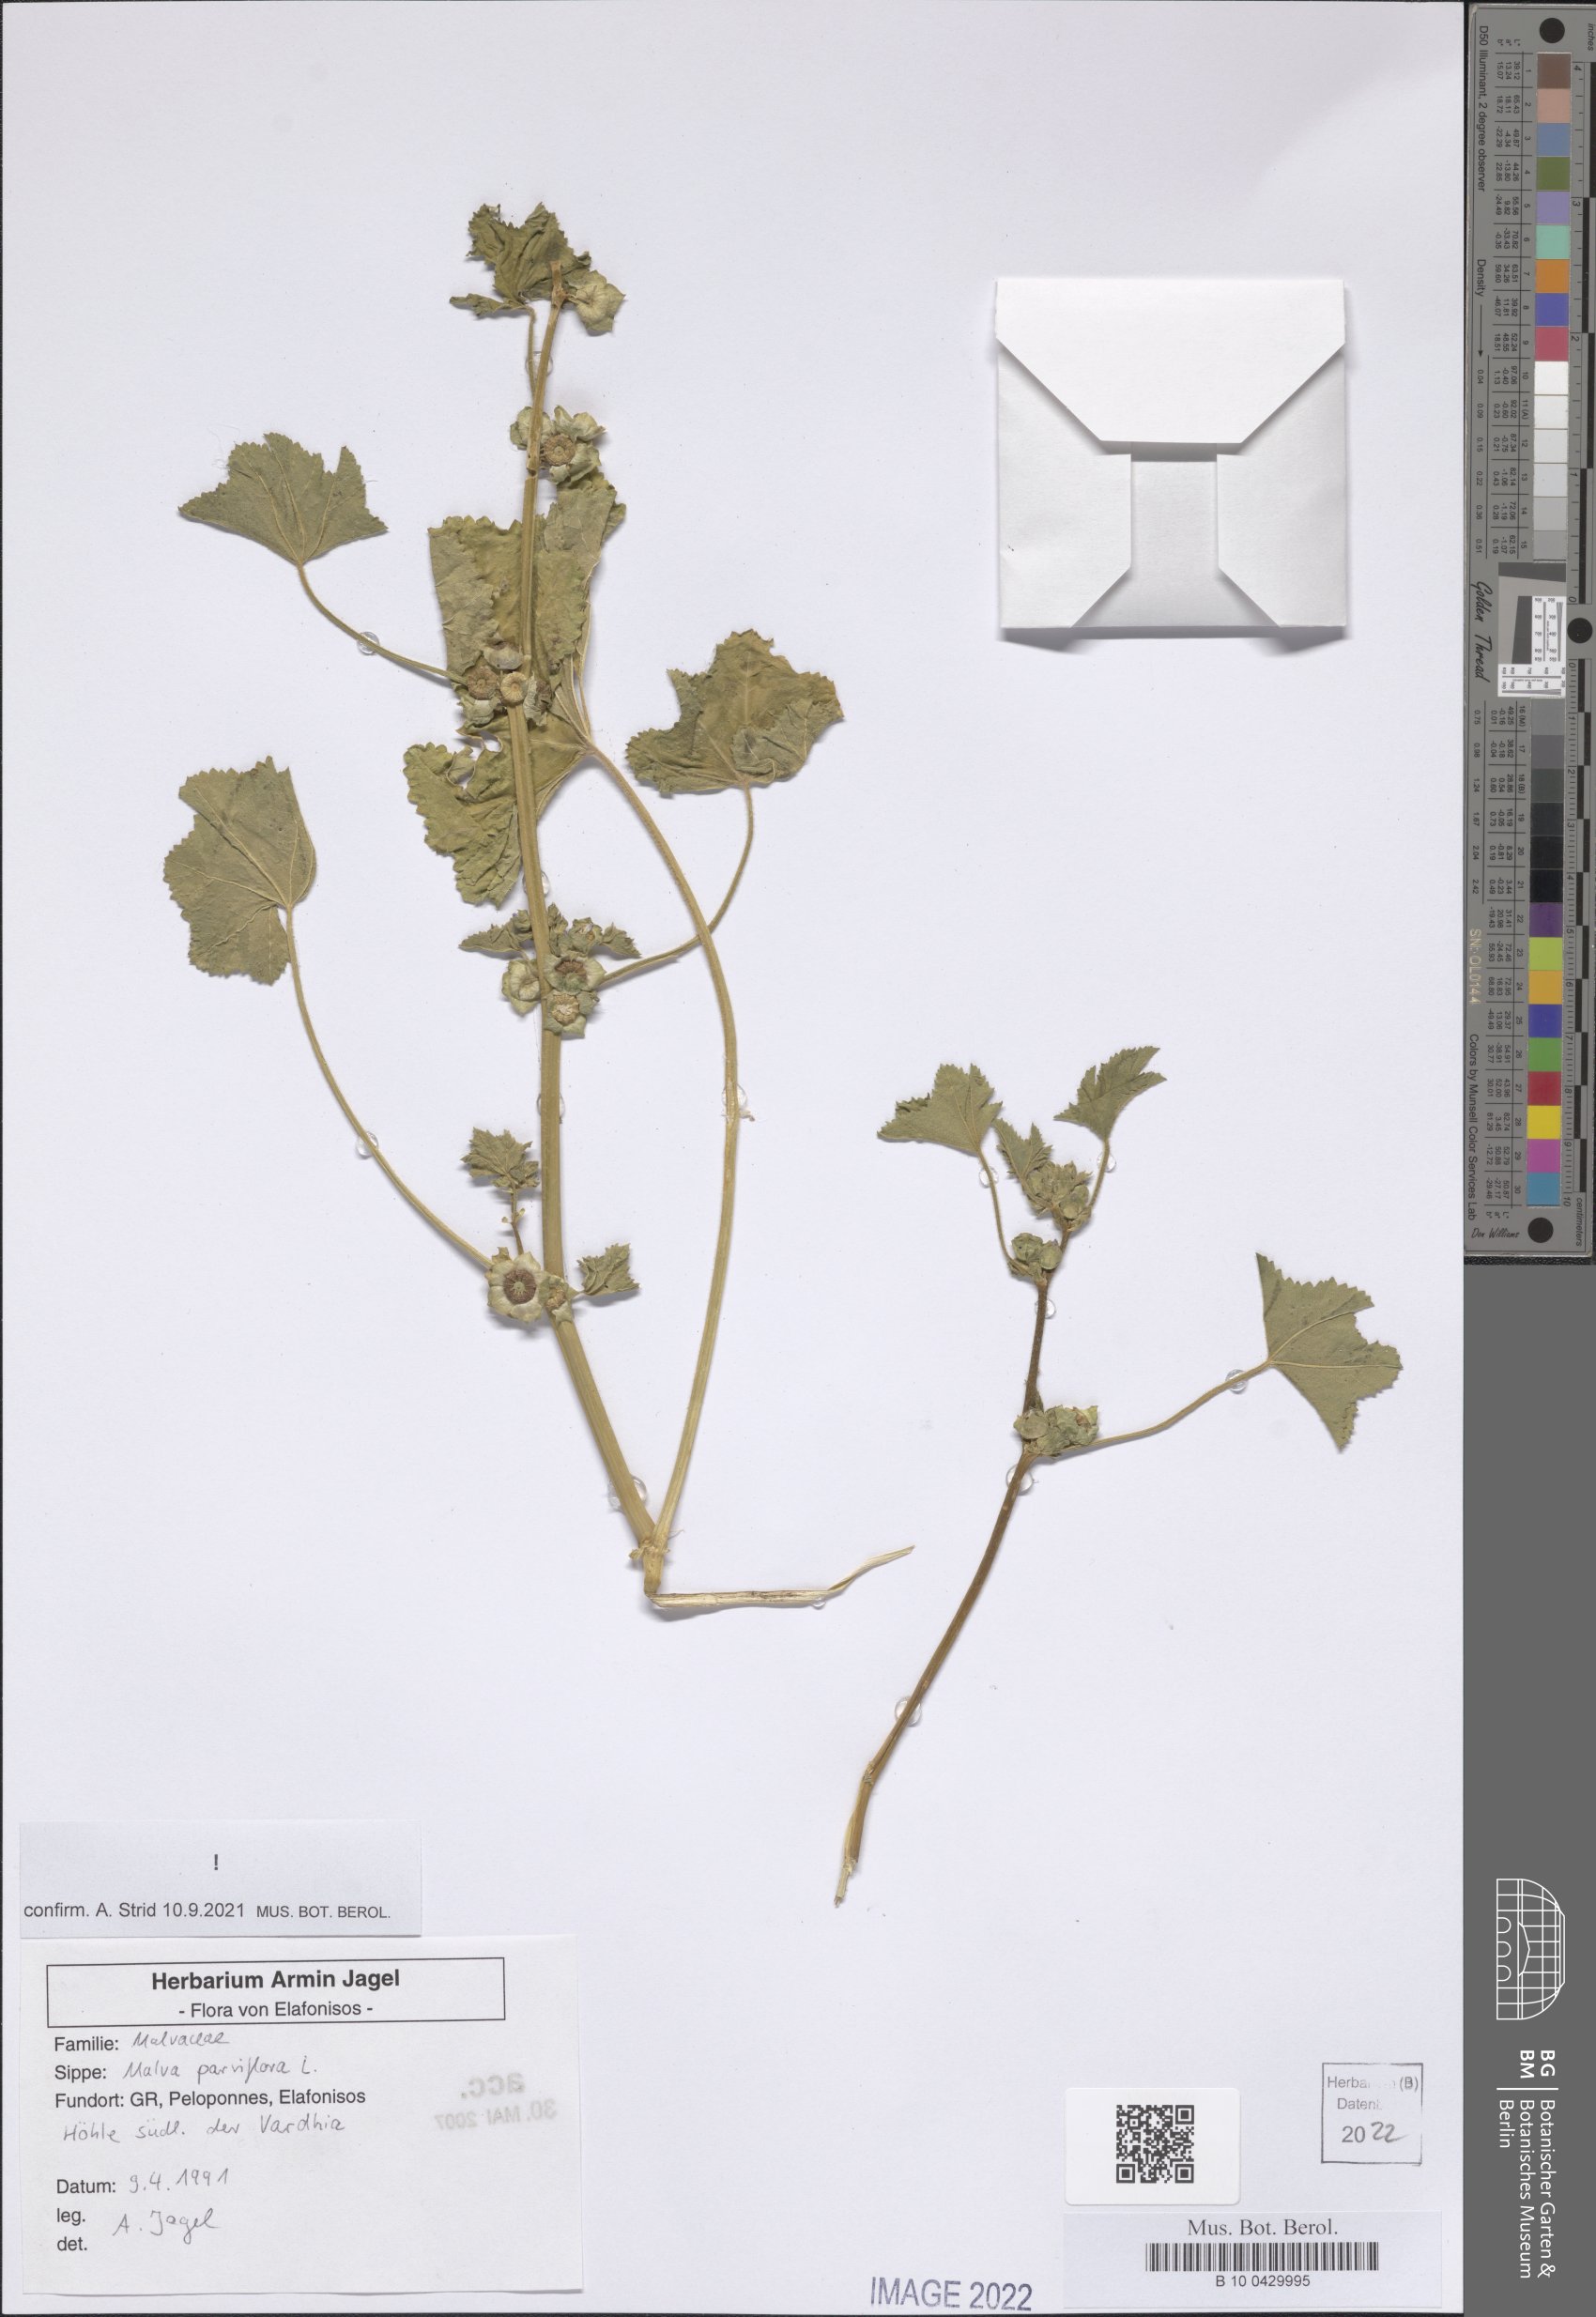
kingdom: Plantae
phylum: Tracheophyta
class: Magnoliopsida
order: Malvales
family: Malvaceae
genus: Malva
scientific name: Malva parviflora
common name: Least mallow
